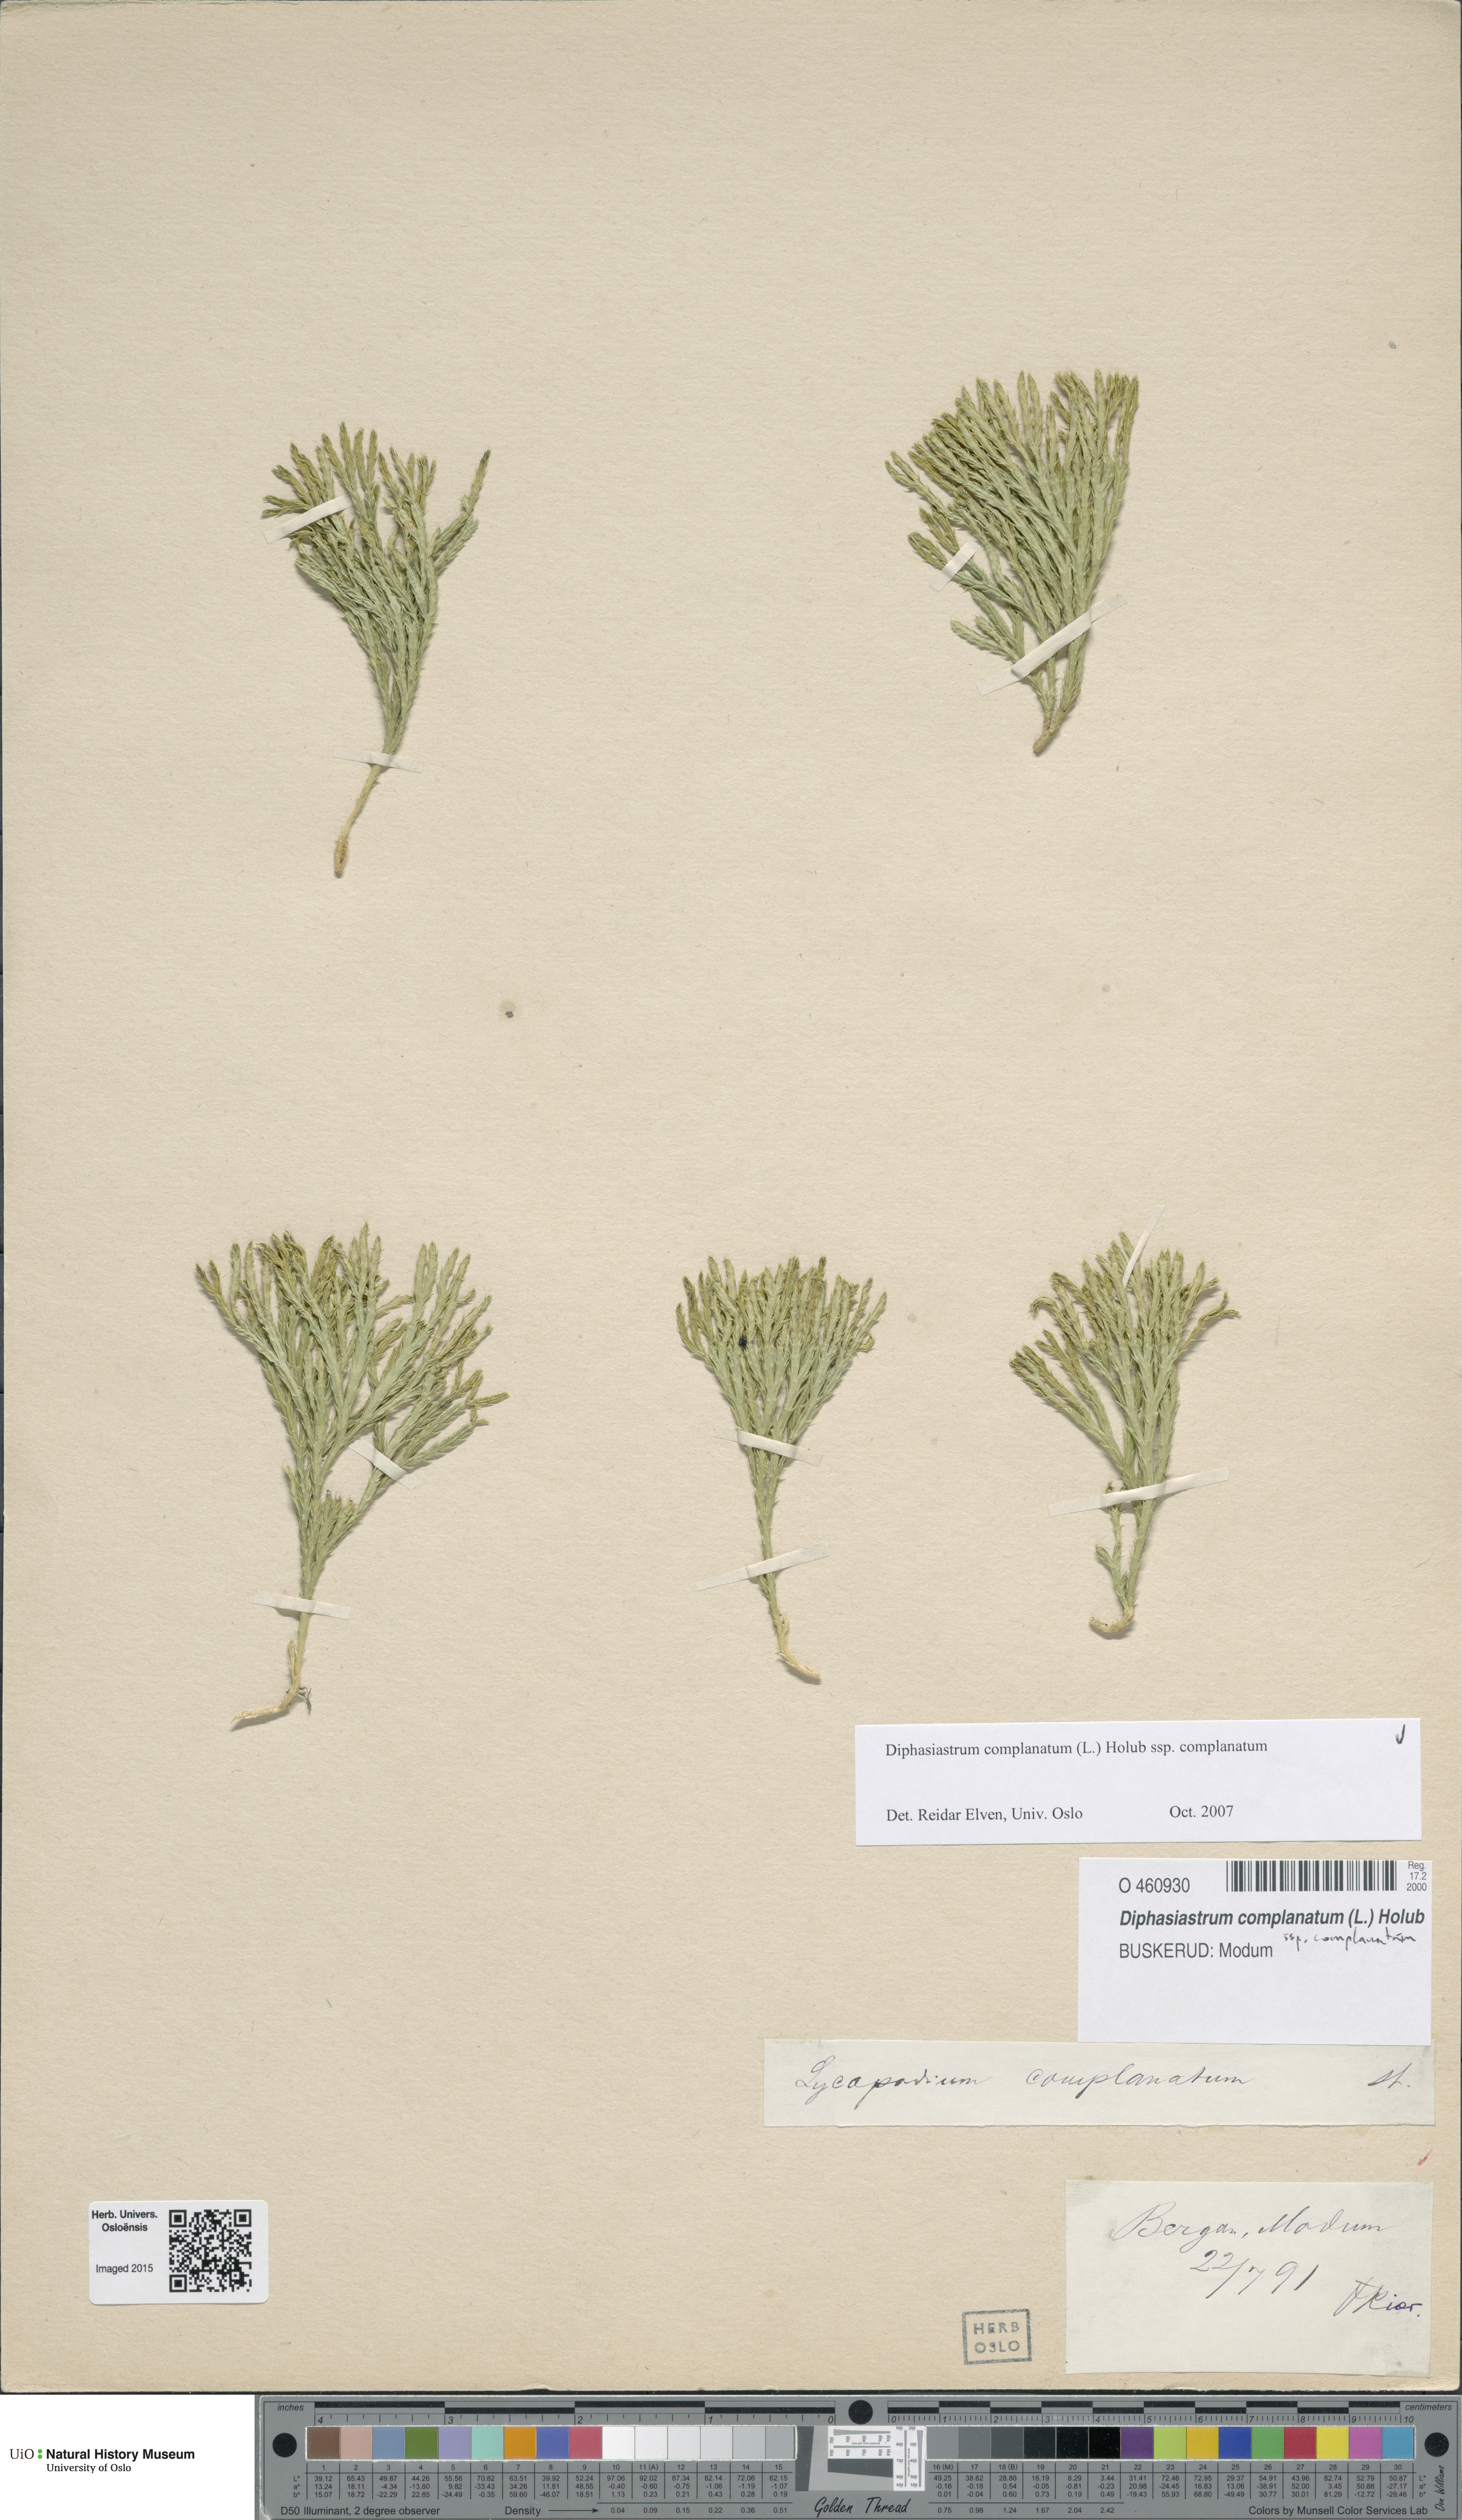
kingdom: Plantae
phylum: Tracheophyta
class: Lycopodiopsida
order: Lycopodiales
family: Lycopodiaceae
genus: Diphasiastrum
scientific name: Diphasiastrum complanatum
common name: Northern running-pine
